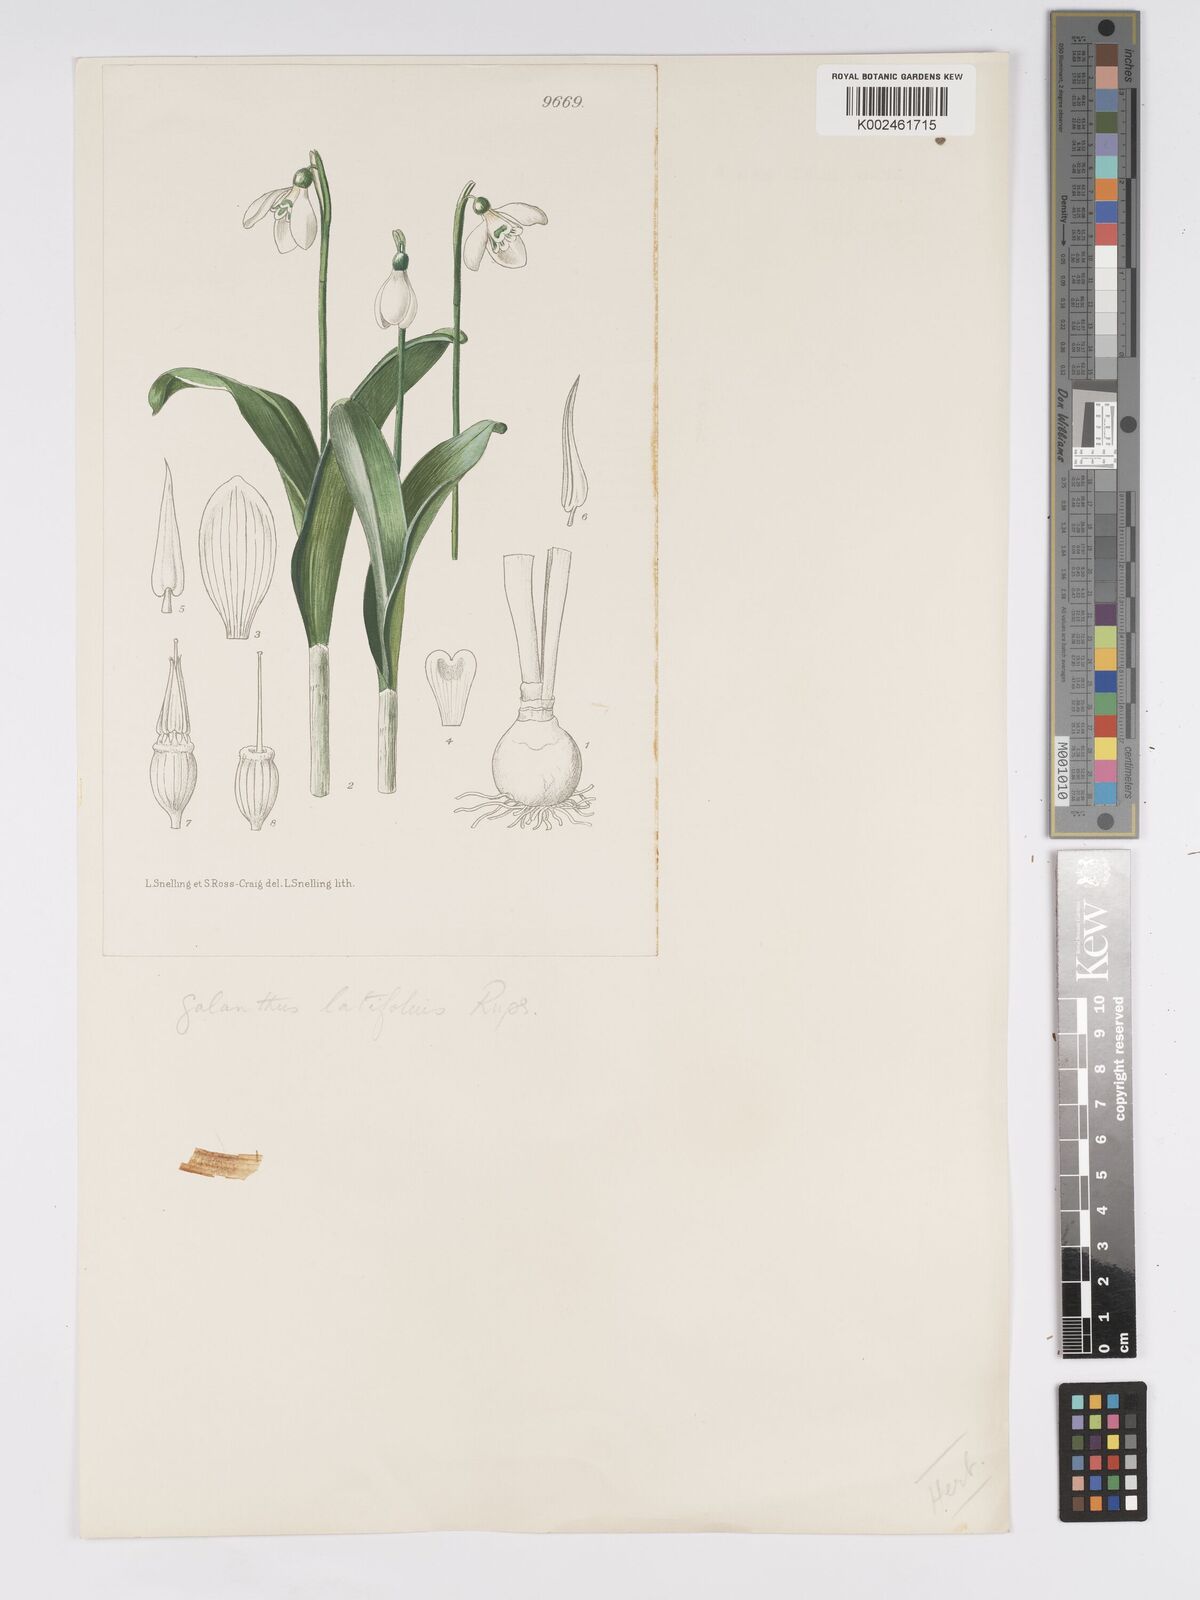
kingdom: Plantae
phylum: Tracheophyta
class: Liliopsida
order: Asparagales
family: Amaryllidaceae
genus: Galanthus
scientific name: Galanthus platyphyllus
